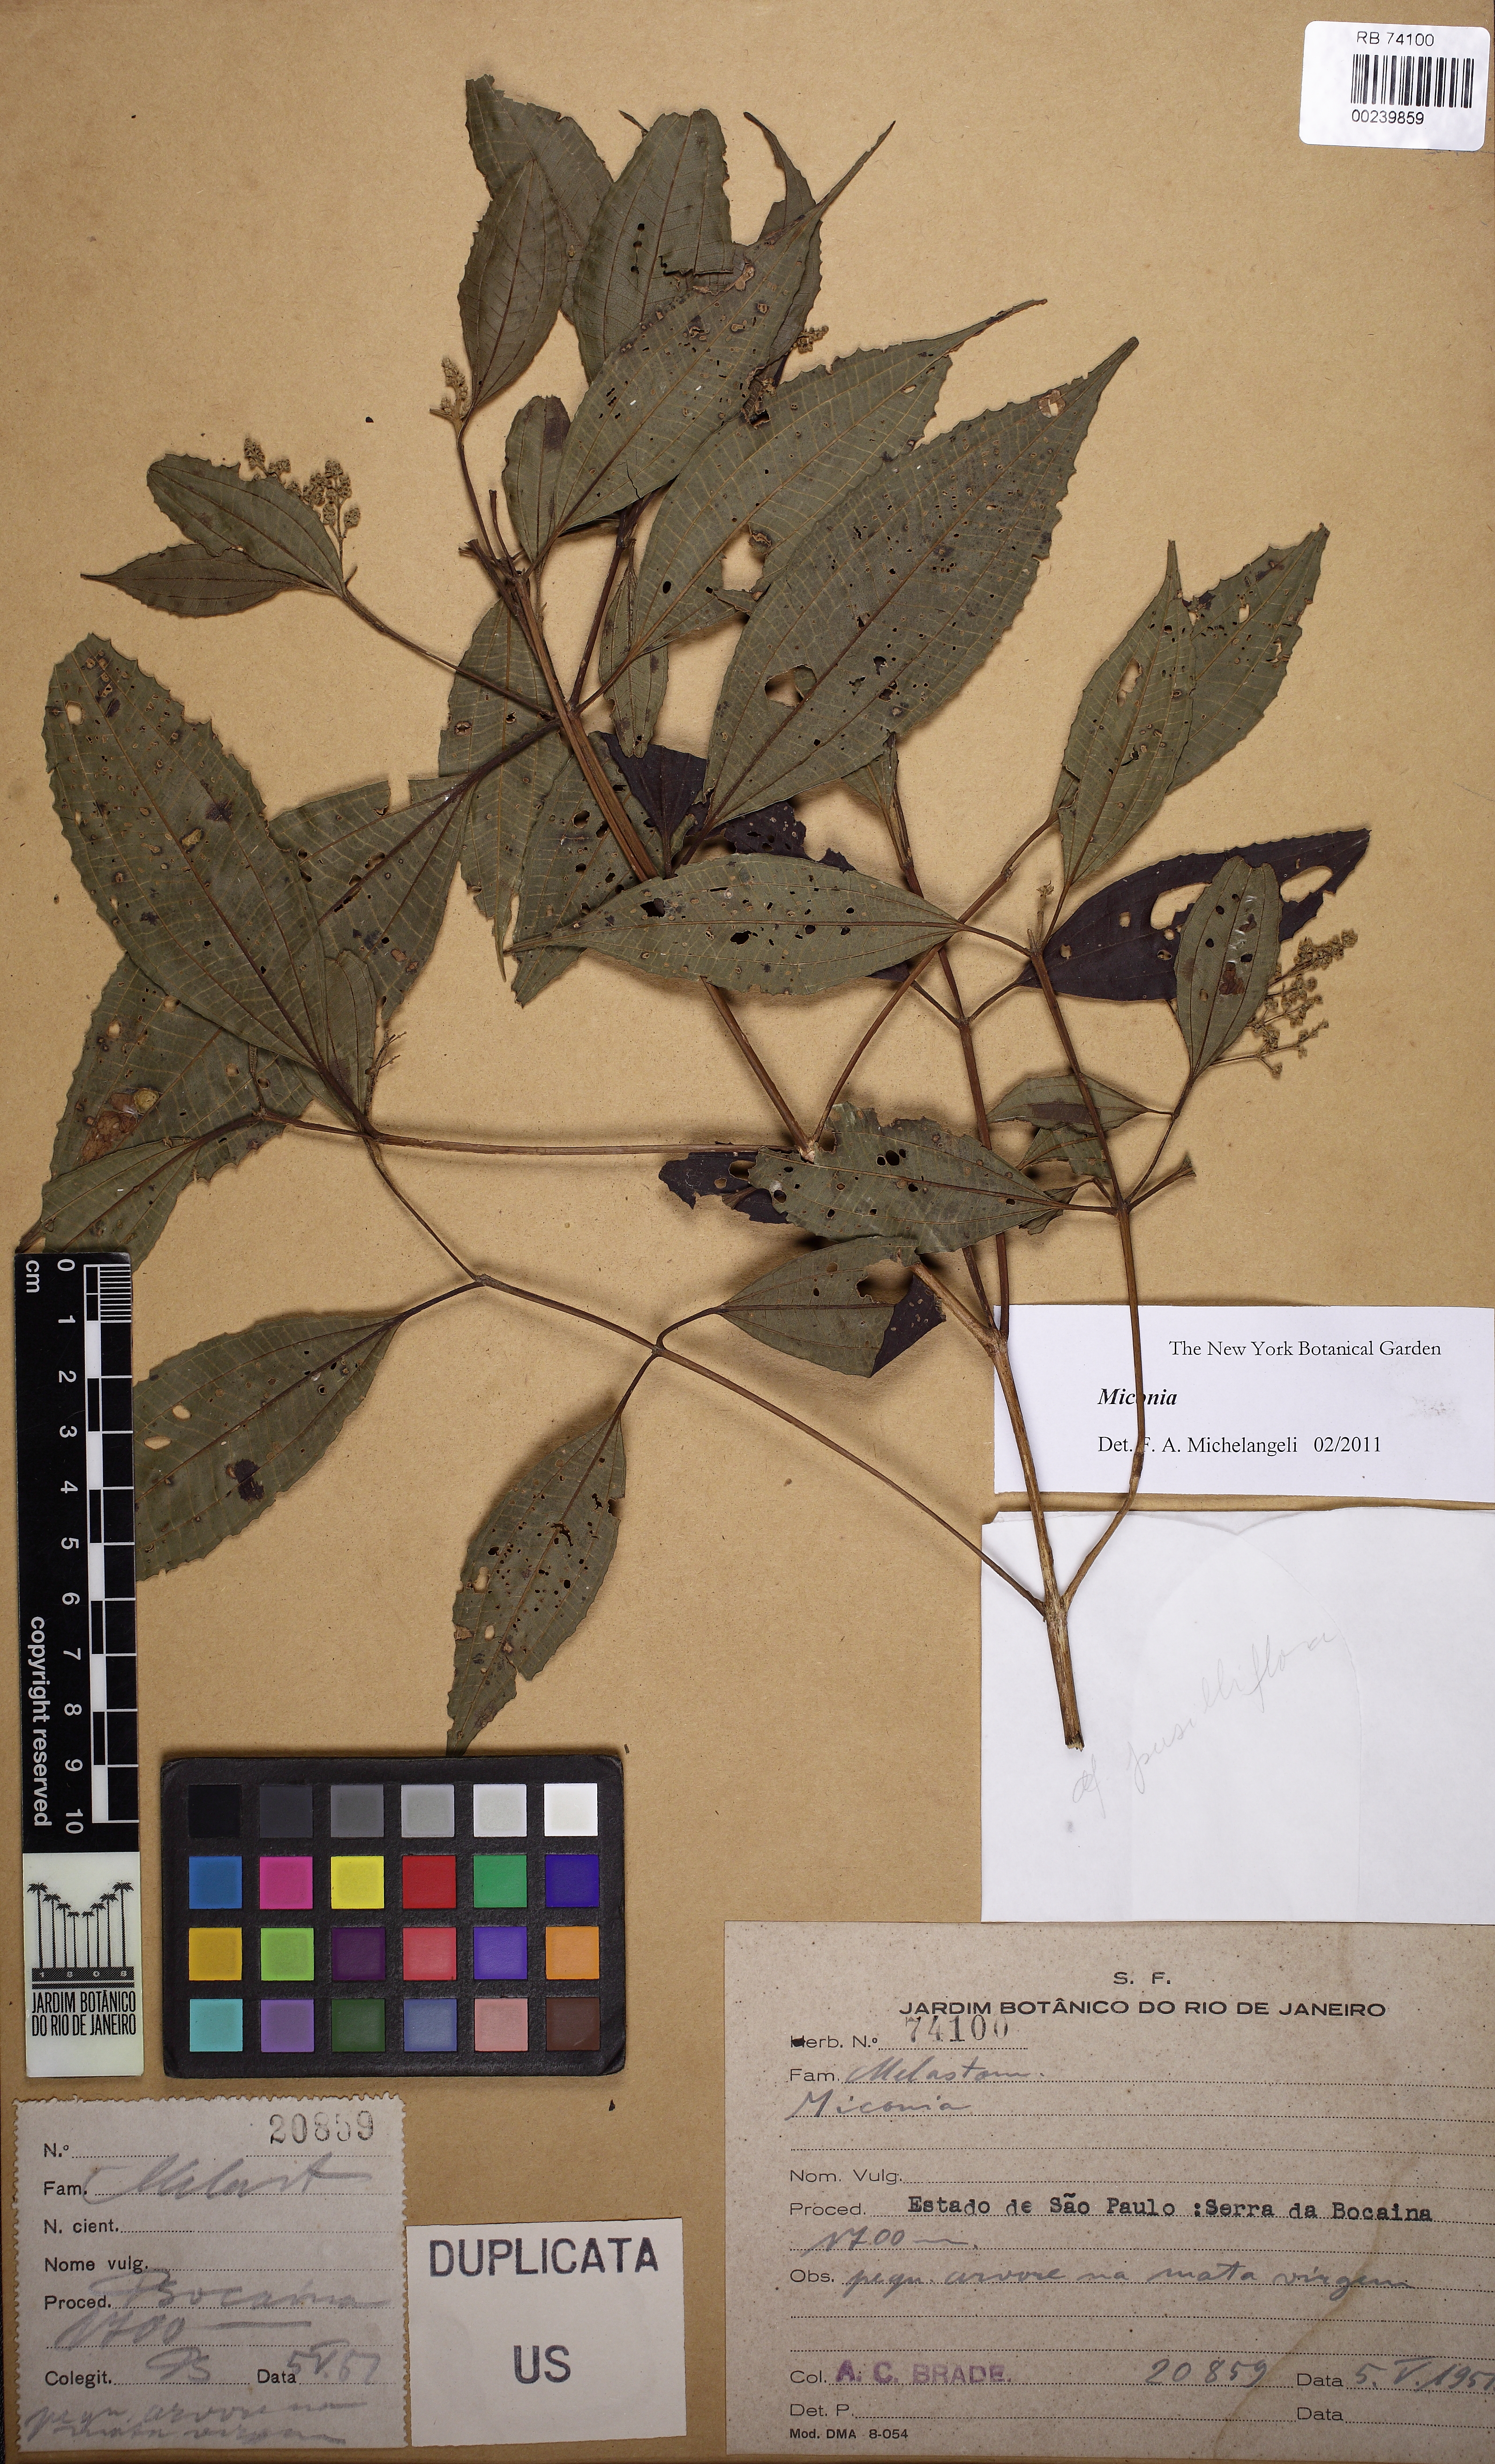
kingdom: Plantae
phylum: Tracheophyta
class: Magnoliopsida
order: Myrtales
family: Melastomataceae
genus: Miconia
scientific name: Miconia
